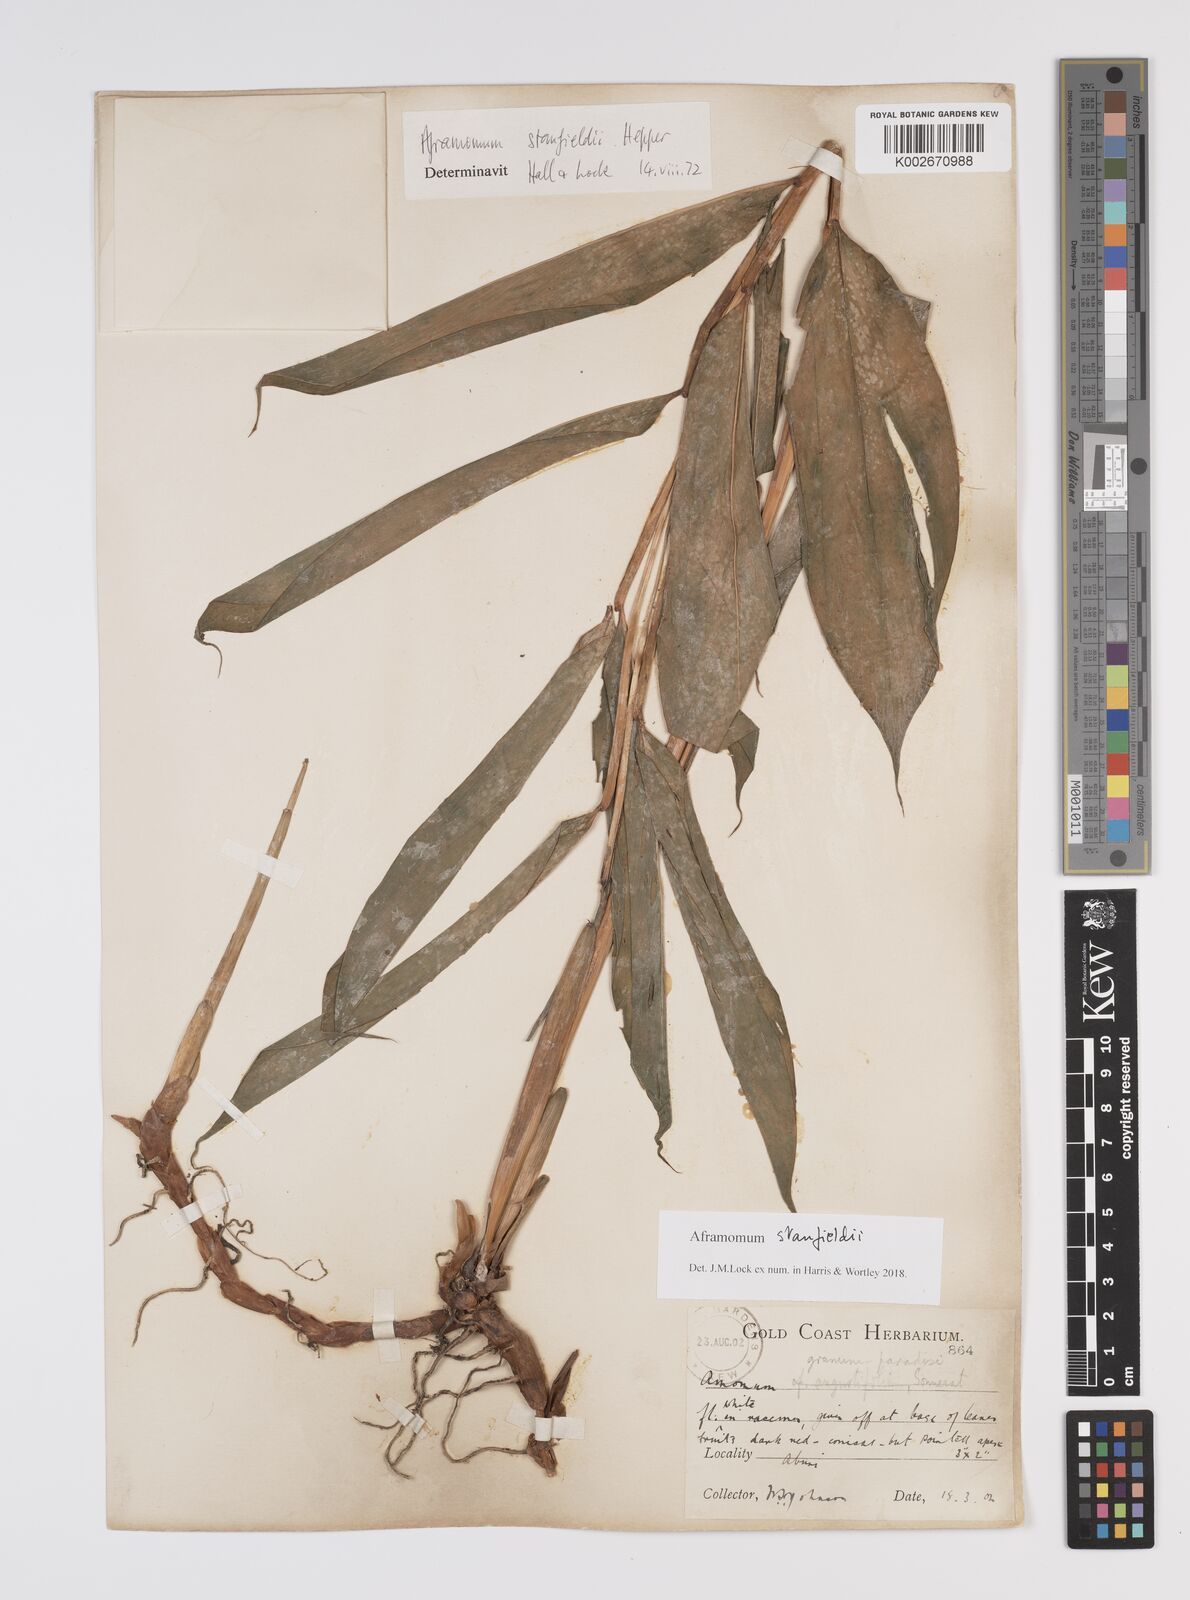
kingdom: Plantae
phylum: Tracheophyta
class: Liliopsida
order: Zingiberales
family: Zingiberaceae
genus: Aframomum
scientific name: Aframomum stanfieldii
